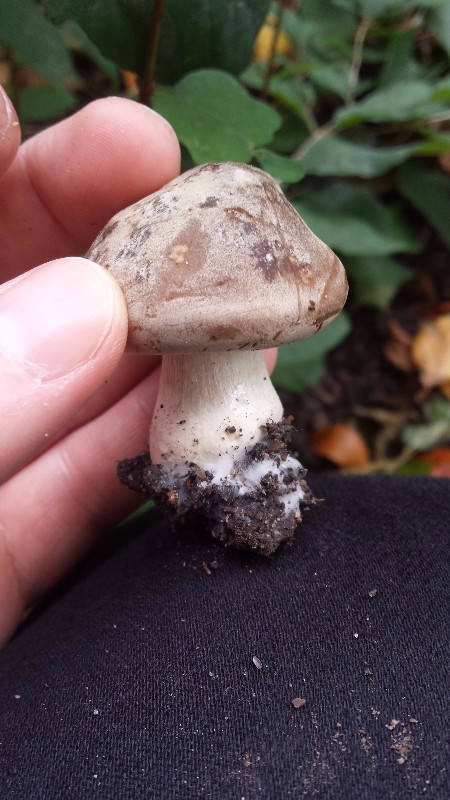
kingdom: Fungi
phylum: Basidiomycota
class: Agaricomycetes
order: Agaricales
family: Tricholomataceae
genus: Clitocybe
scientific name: Clitocybe nebularis
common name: tåge-tragthat
